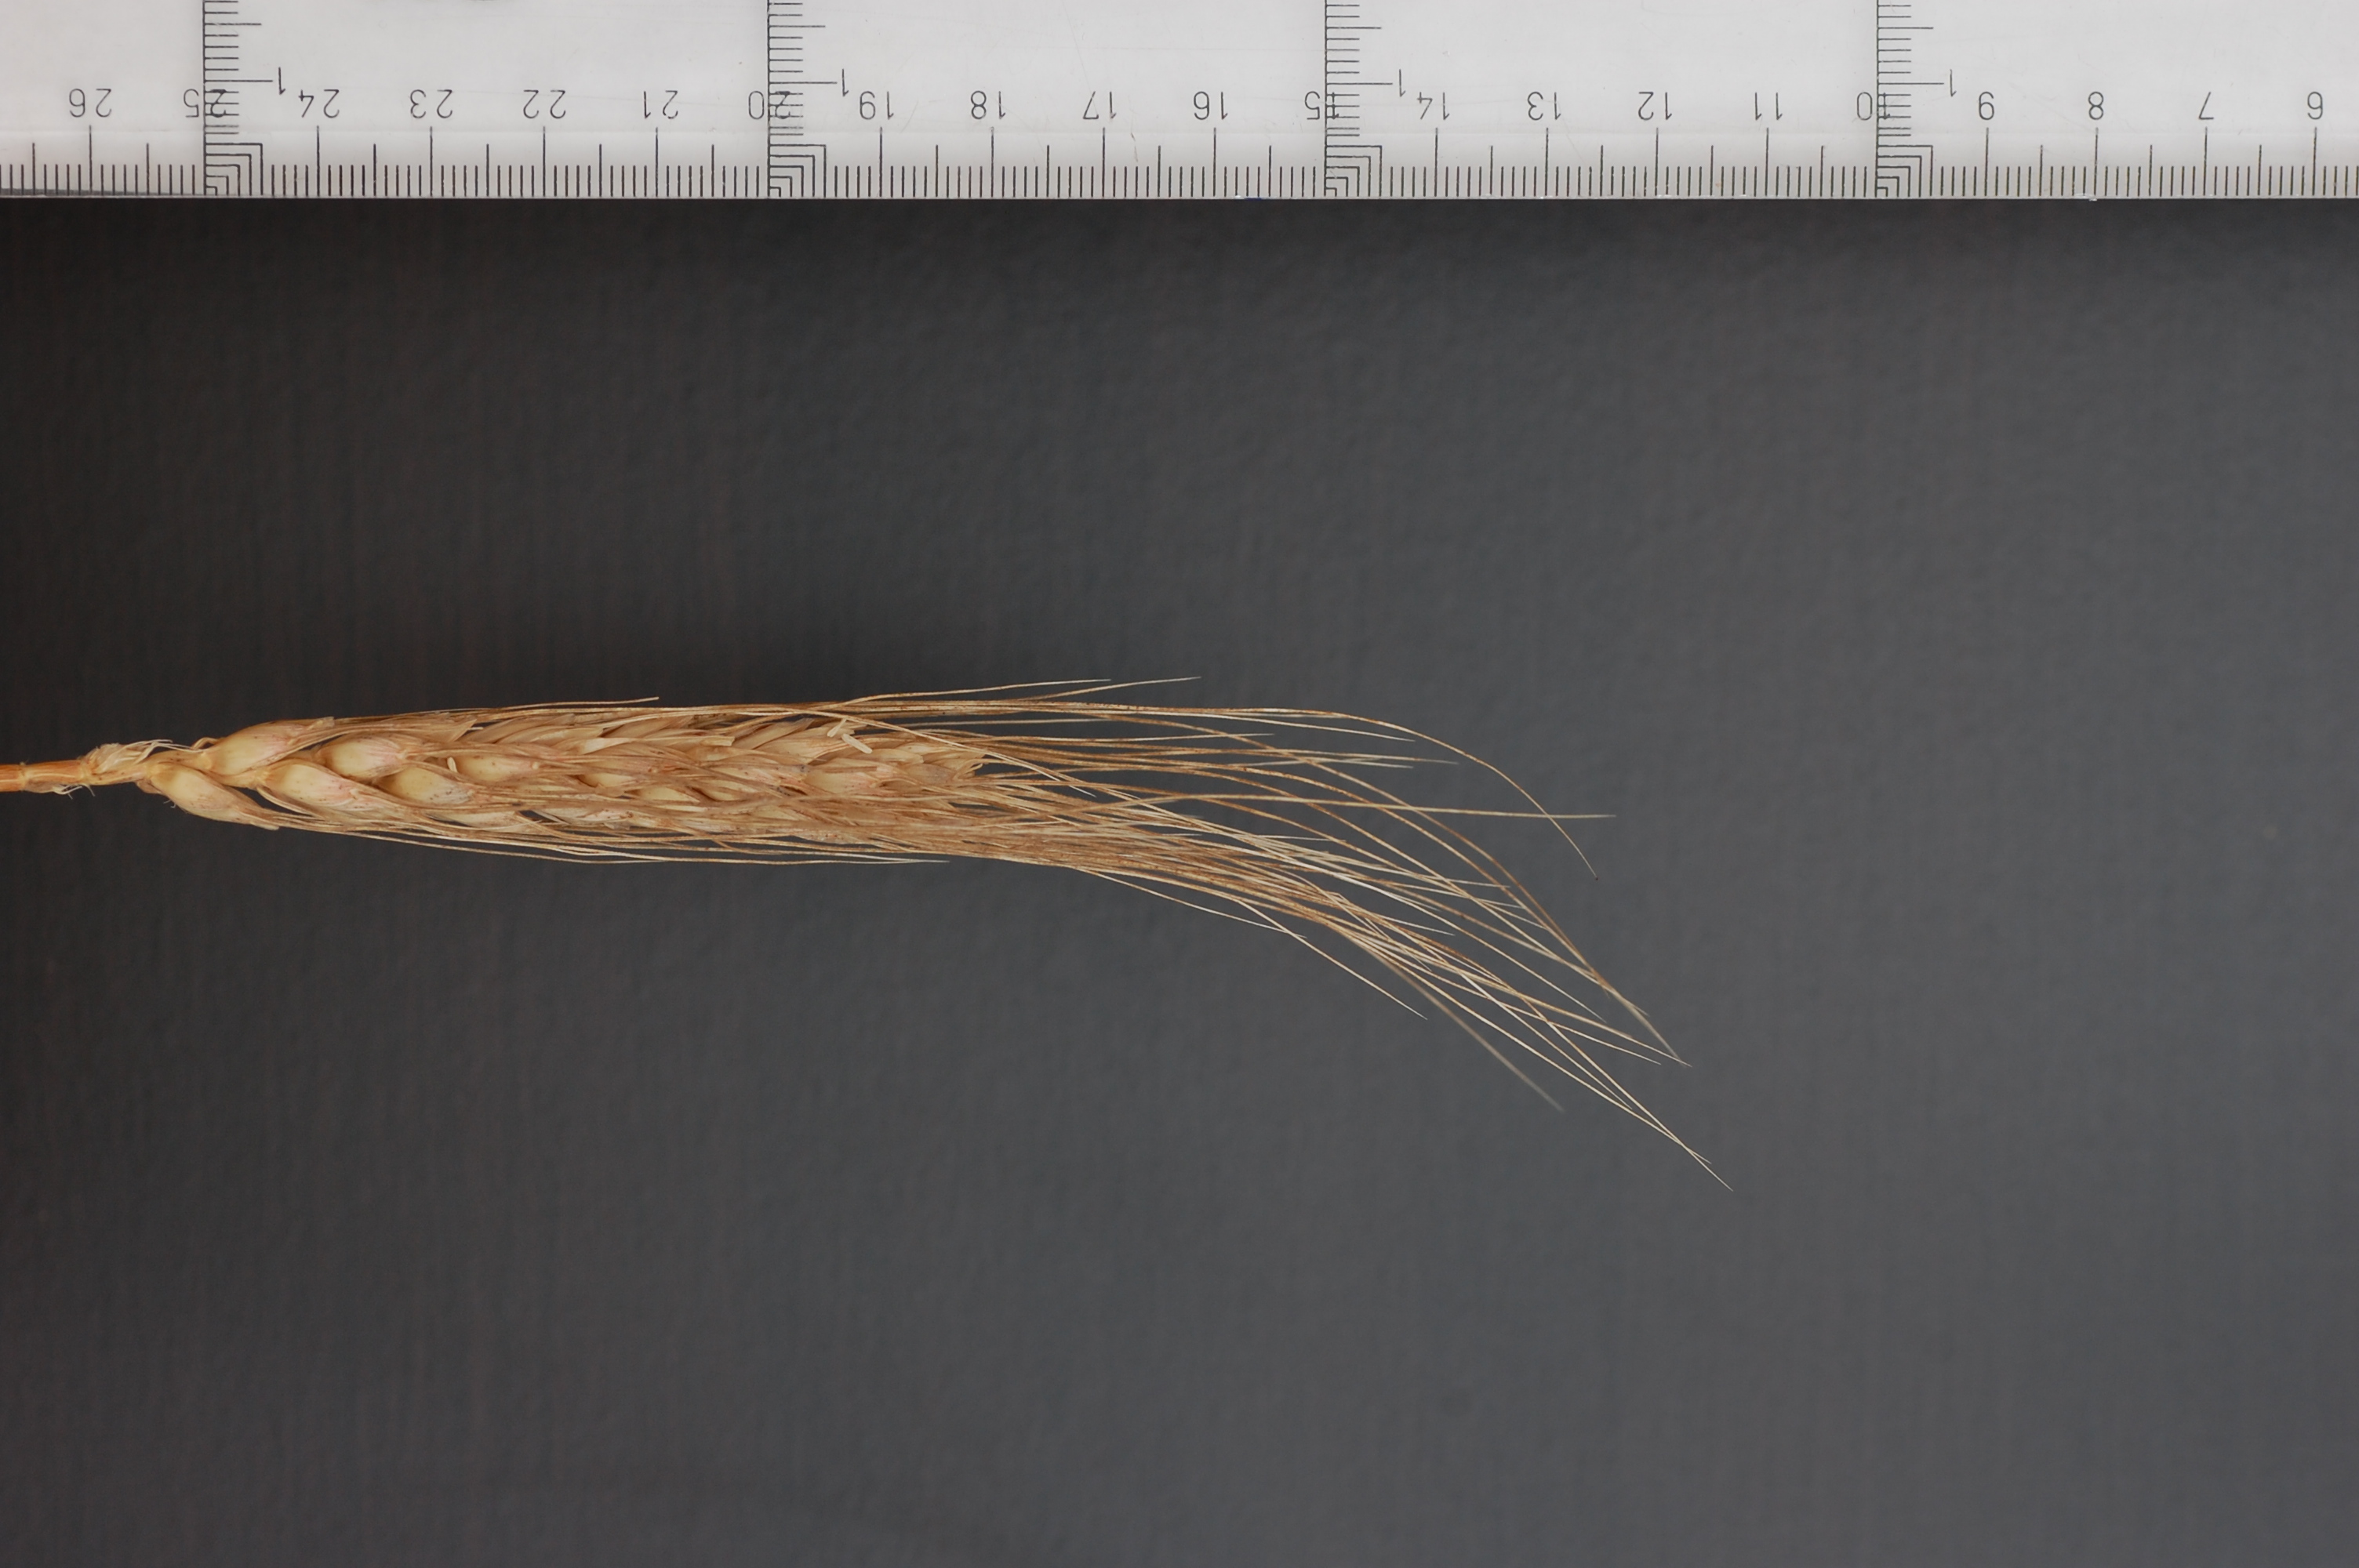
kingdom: Plantae
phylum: Tracheophyta
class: Liliopsida
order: Poales
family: Poaceae
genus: Triticum
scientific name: Triticum aestivum
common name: Common wheat
